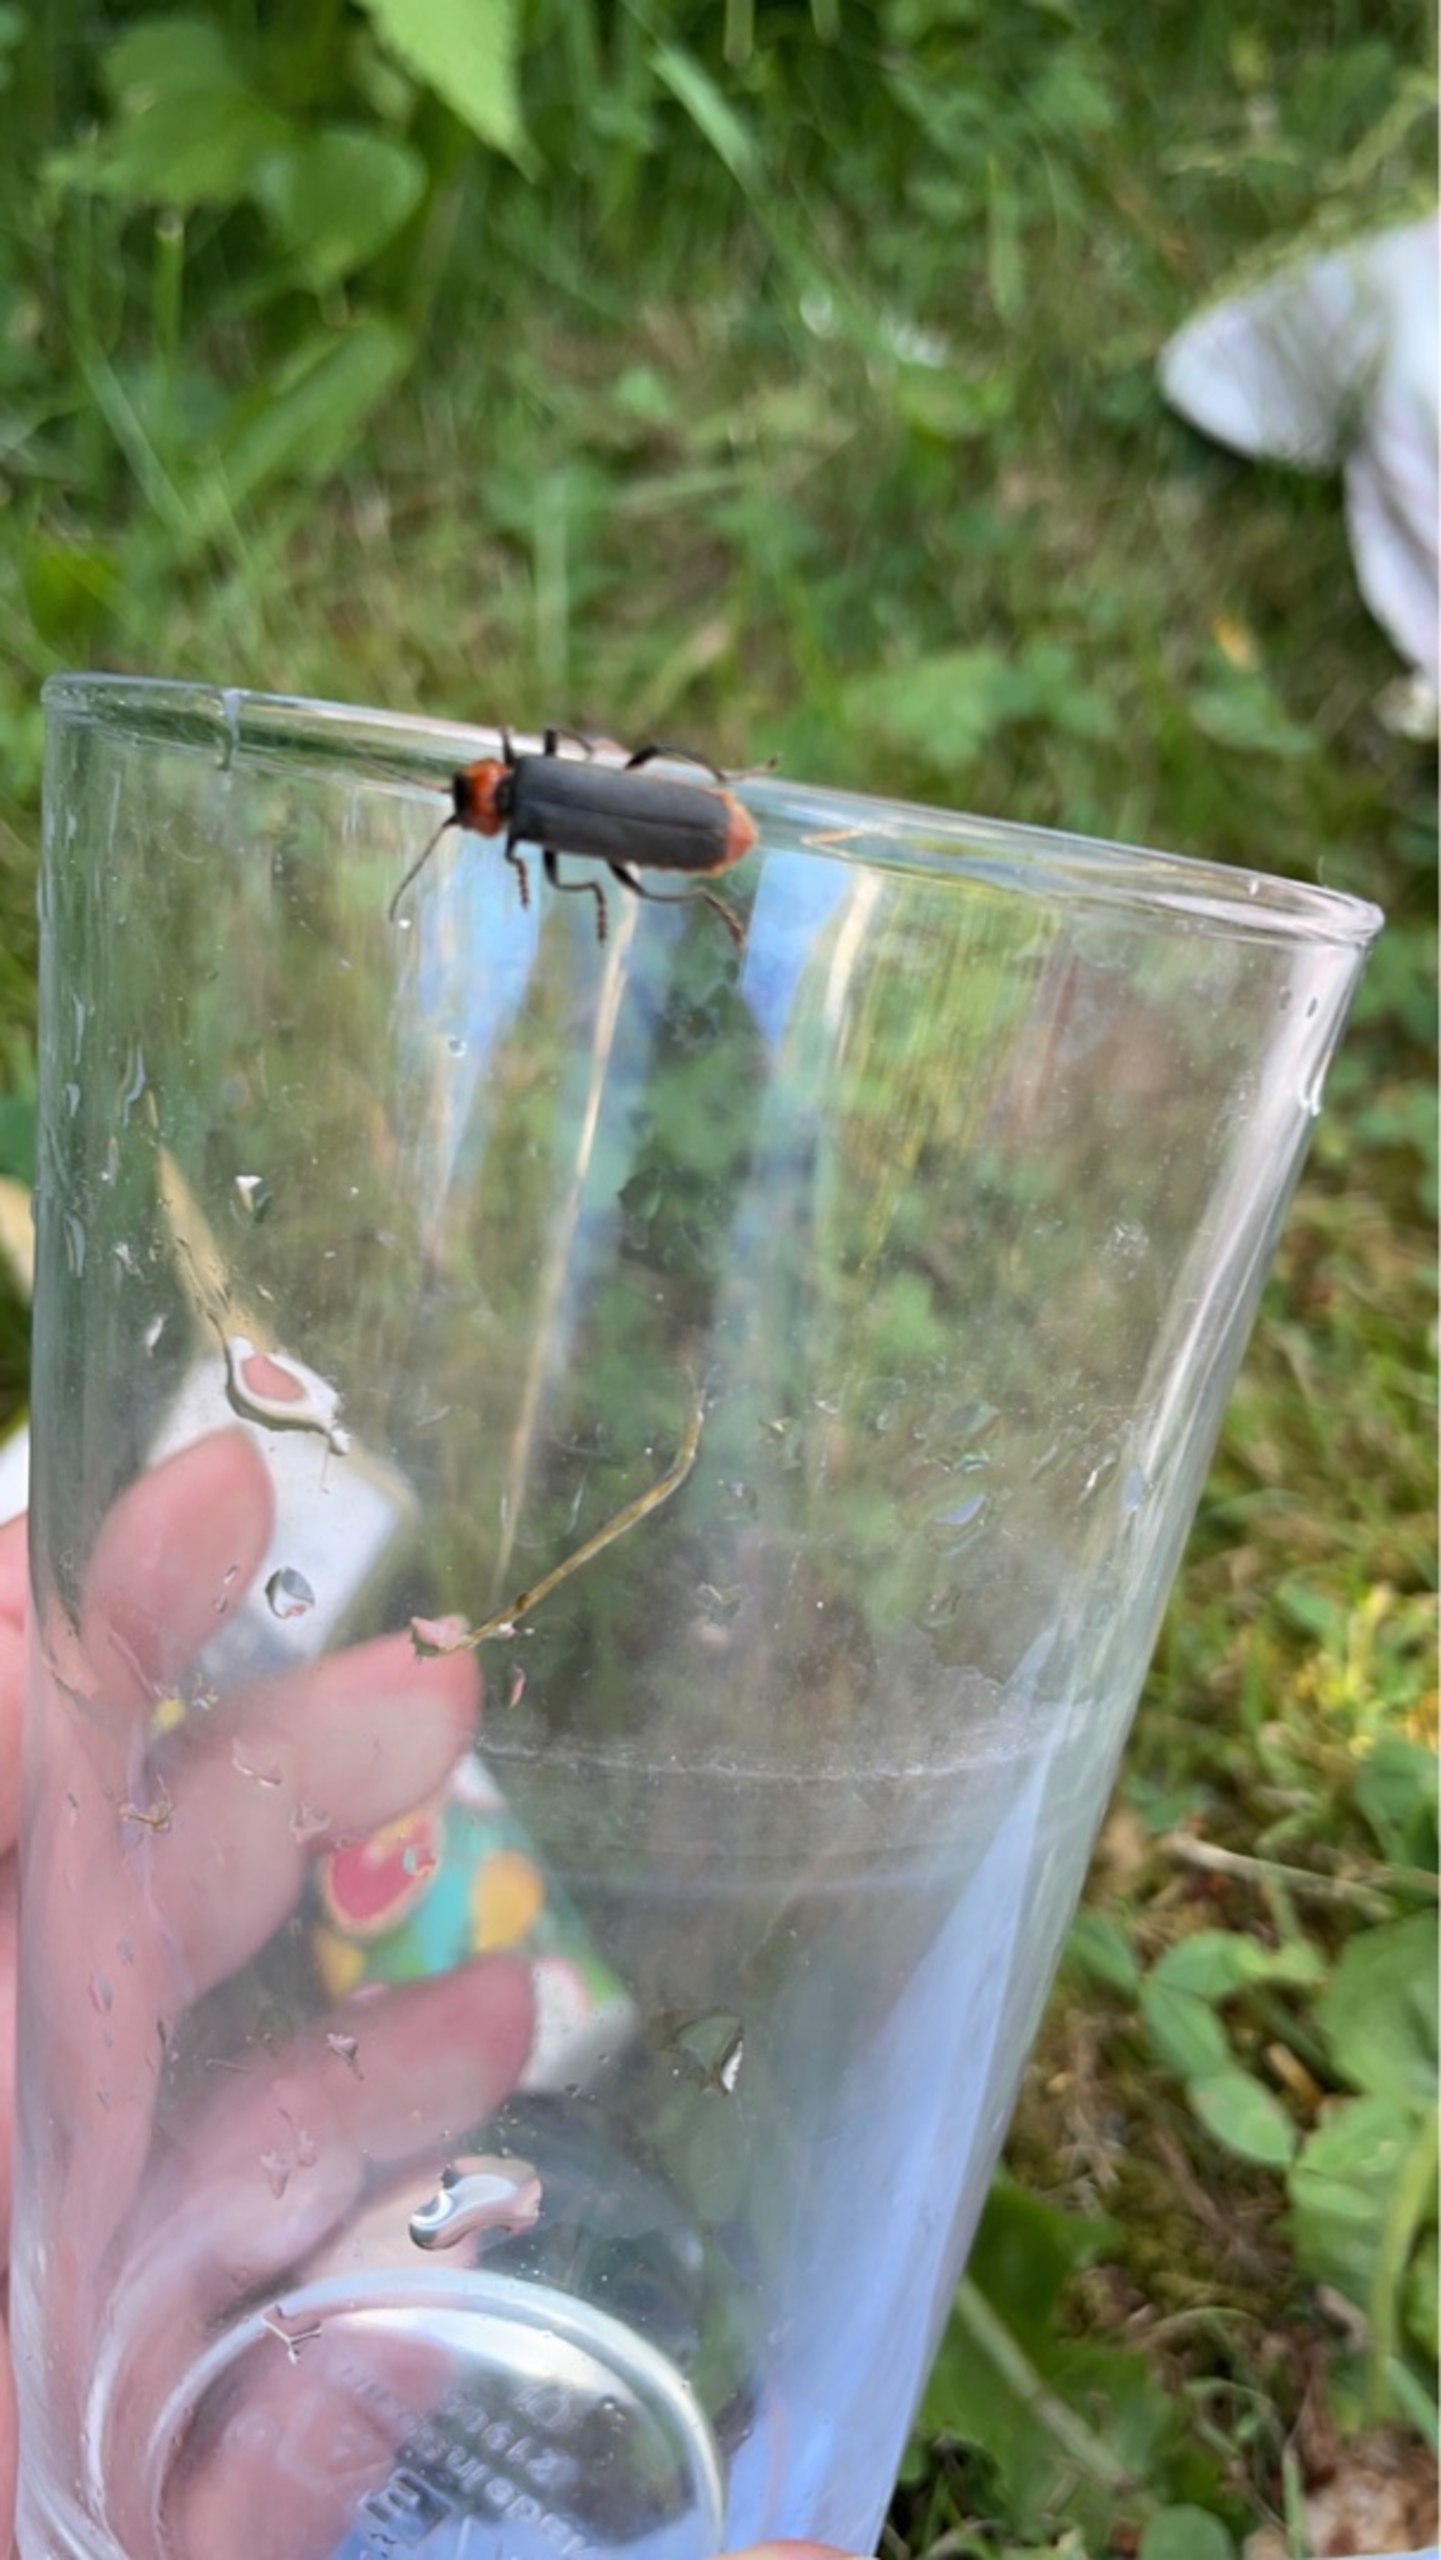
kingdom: Animalia
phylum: Arthropoda
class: Insecta
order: Coleoptera
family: Cantharidae
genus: Cantharis
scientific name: Cantharis fusca
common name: Stor blødvinge
